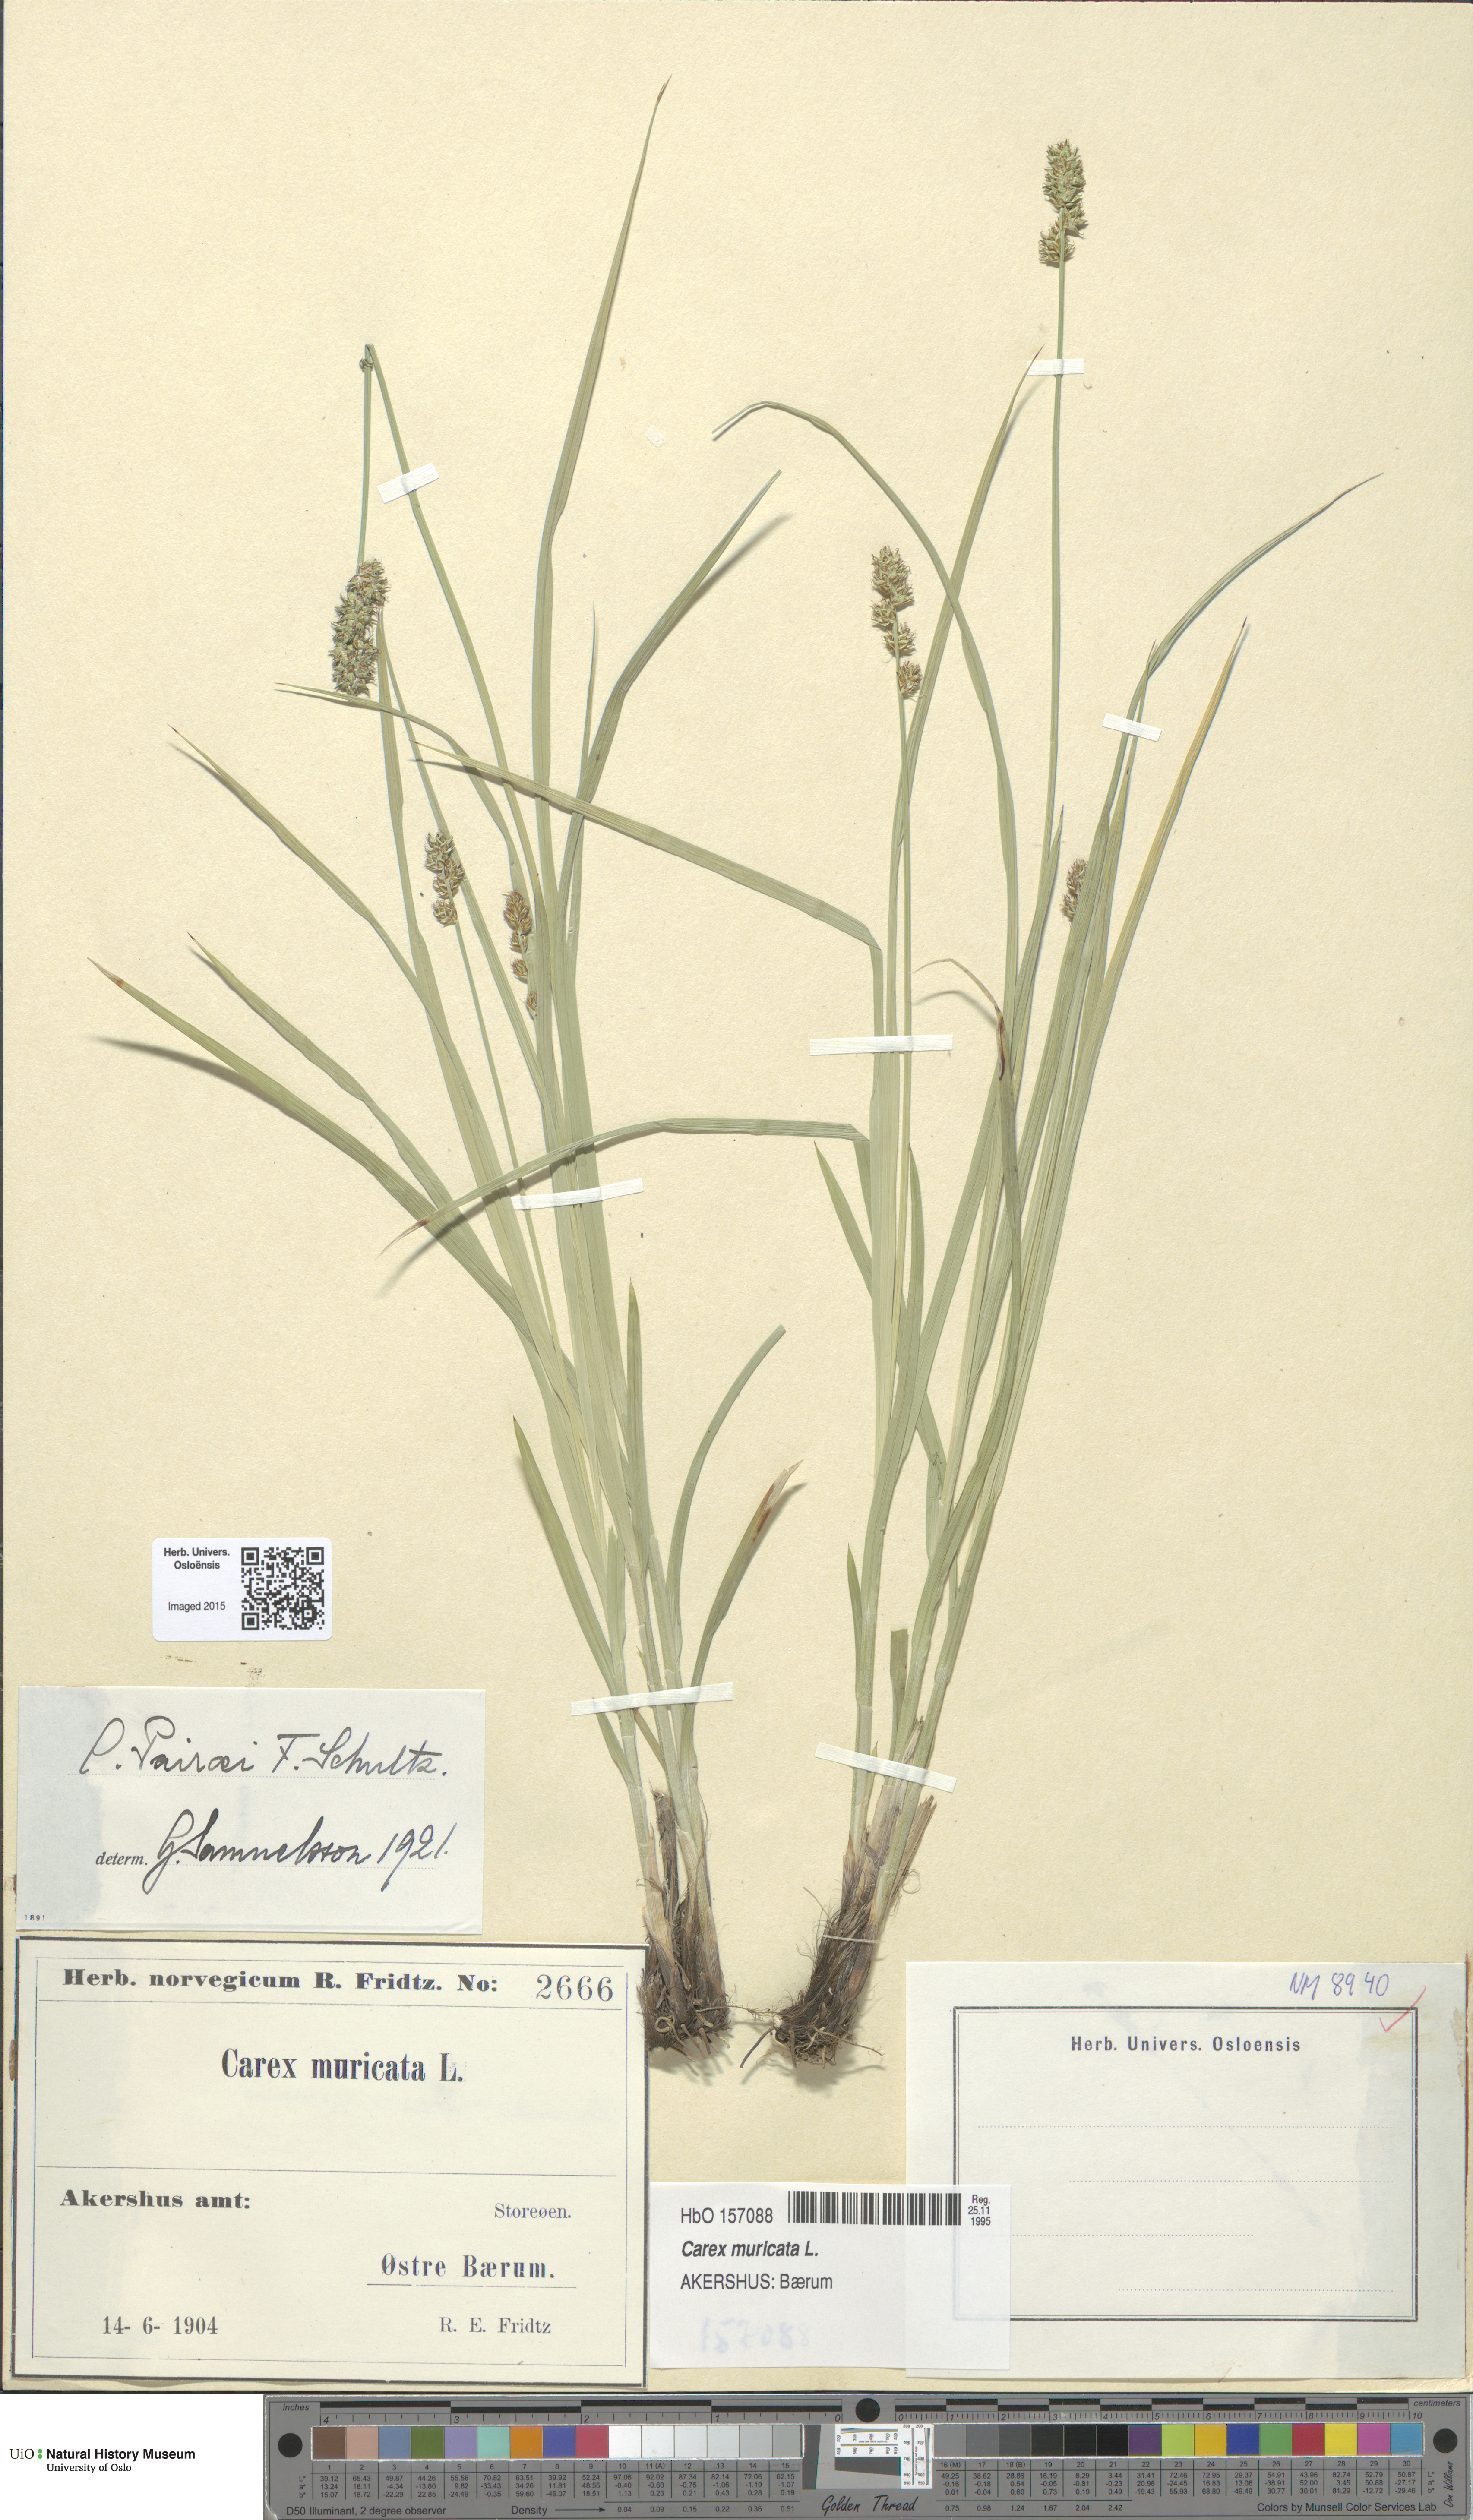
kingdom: Plantae
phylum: Tracheophyta
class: Liliopsida
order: Poales
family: Cyperaceae
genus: Carex
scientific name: Carex pairae
